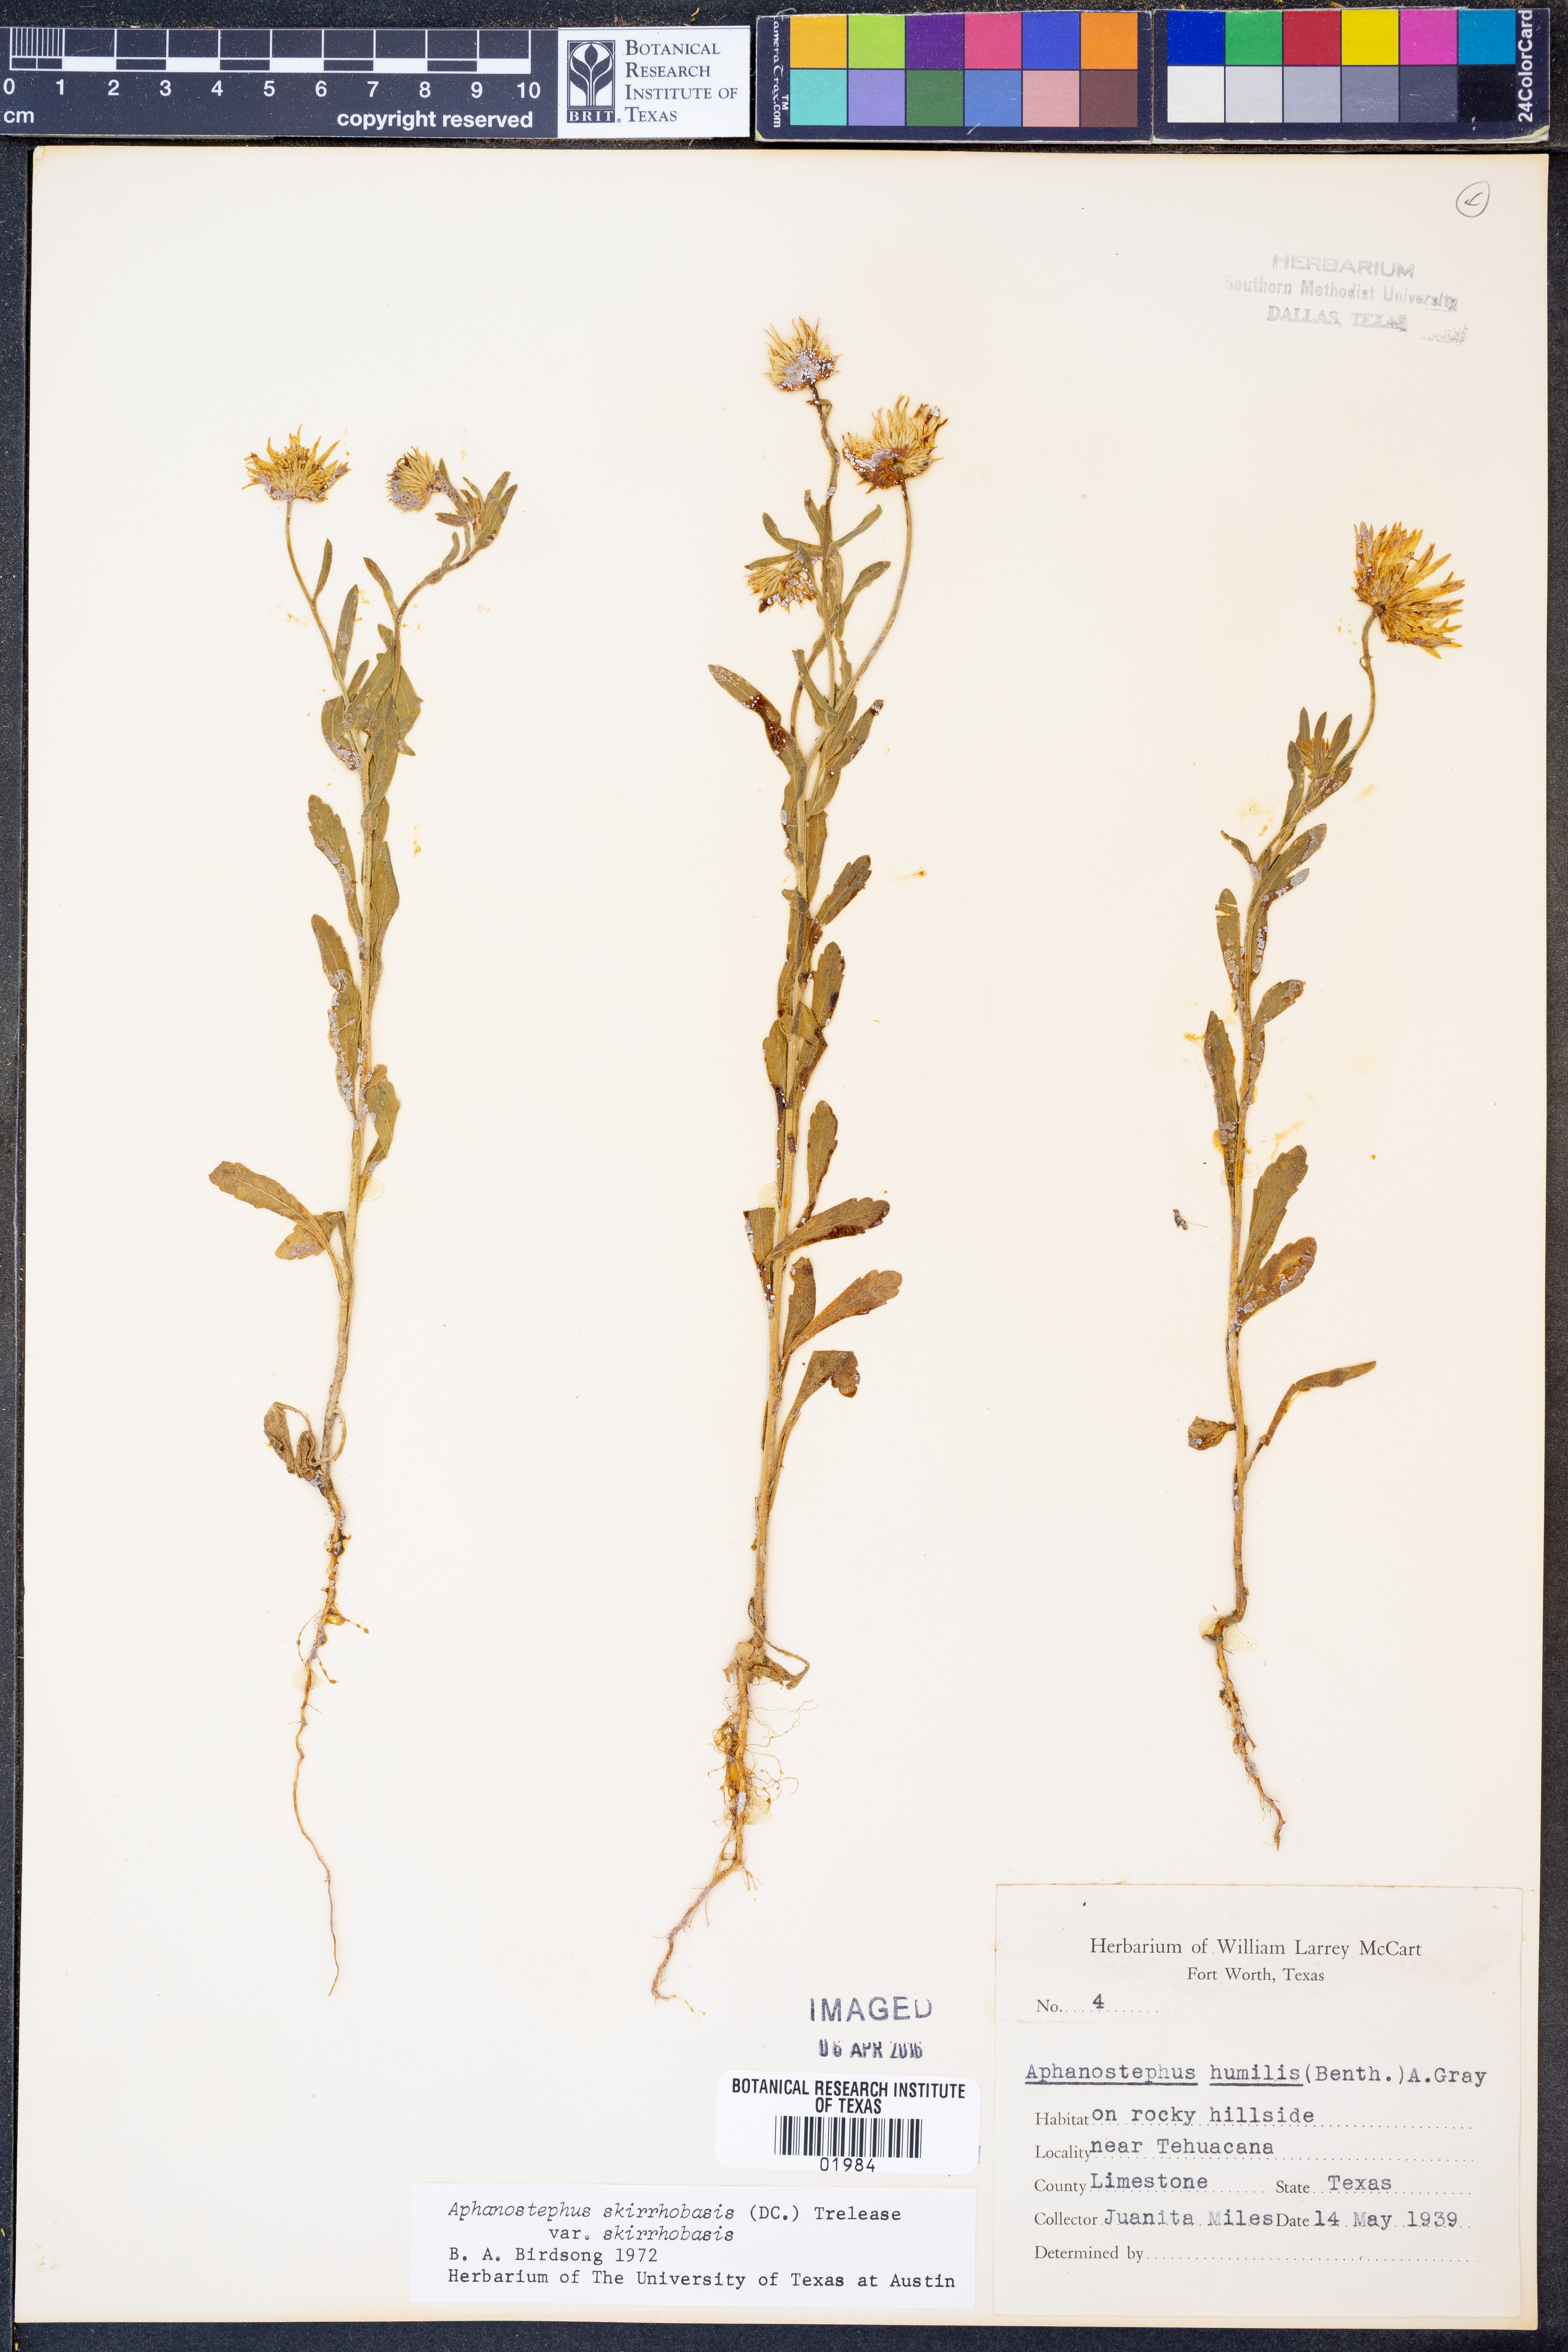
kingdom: Plantae
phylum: Tracheophyta
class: Magnoliopsida
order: Asterales
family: Asteraceae
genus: Aphanostephus
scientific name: Aphanostephus skirrhobasis
